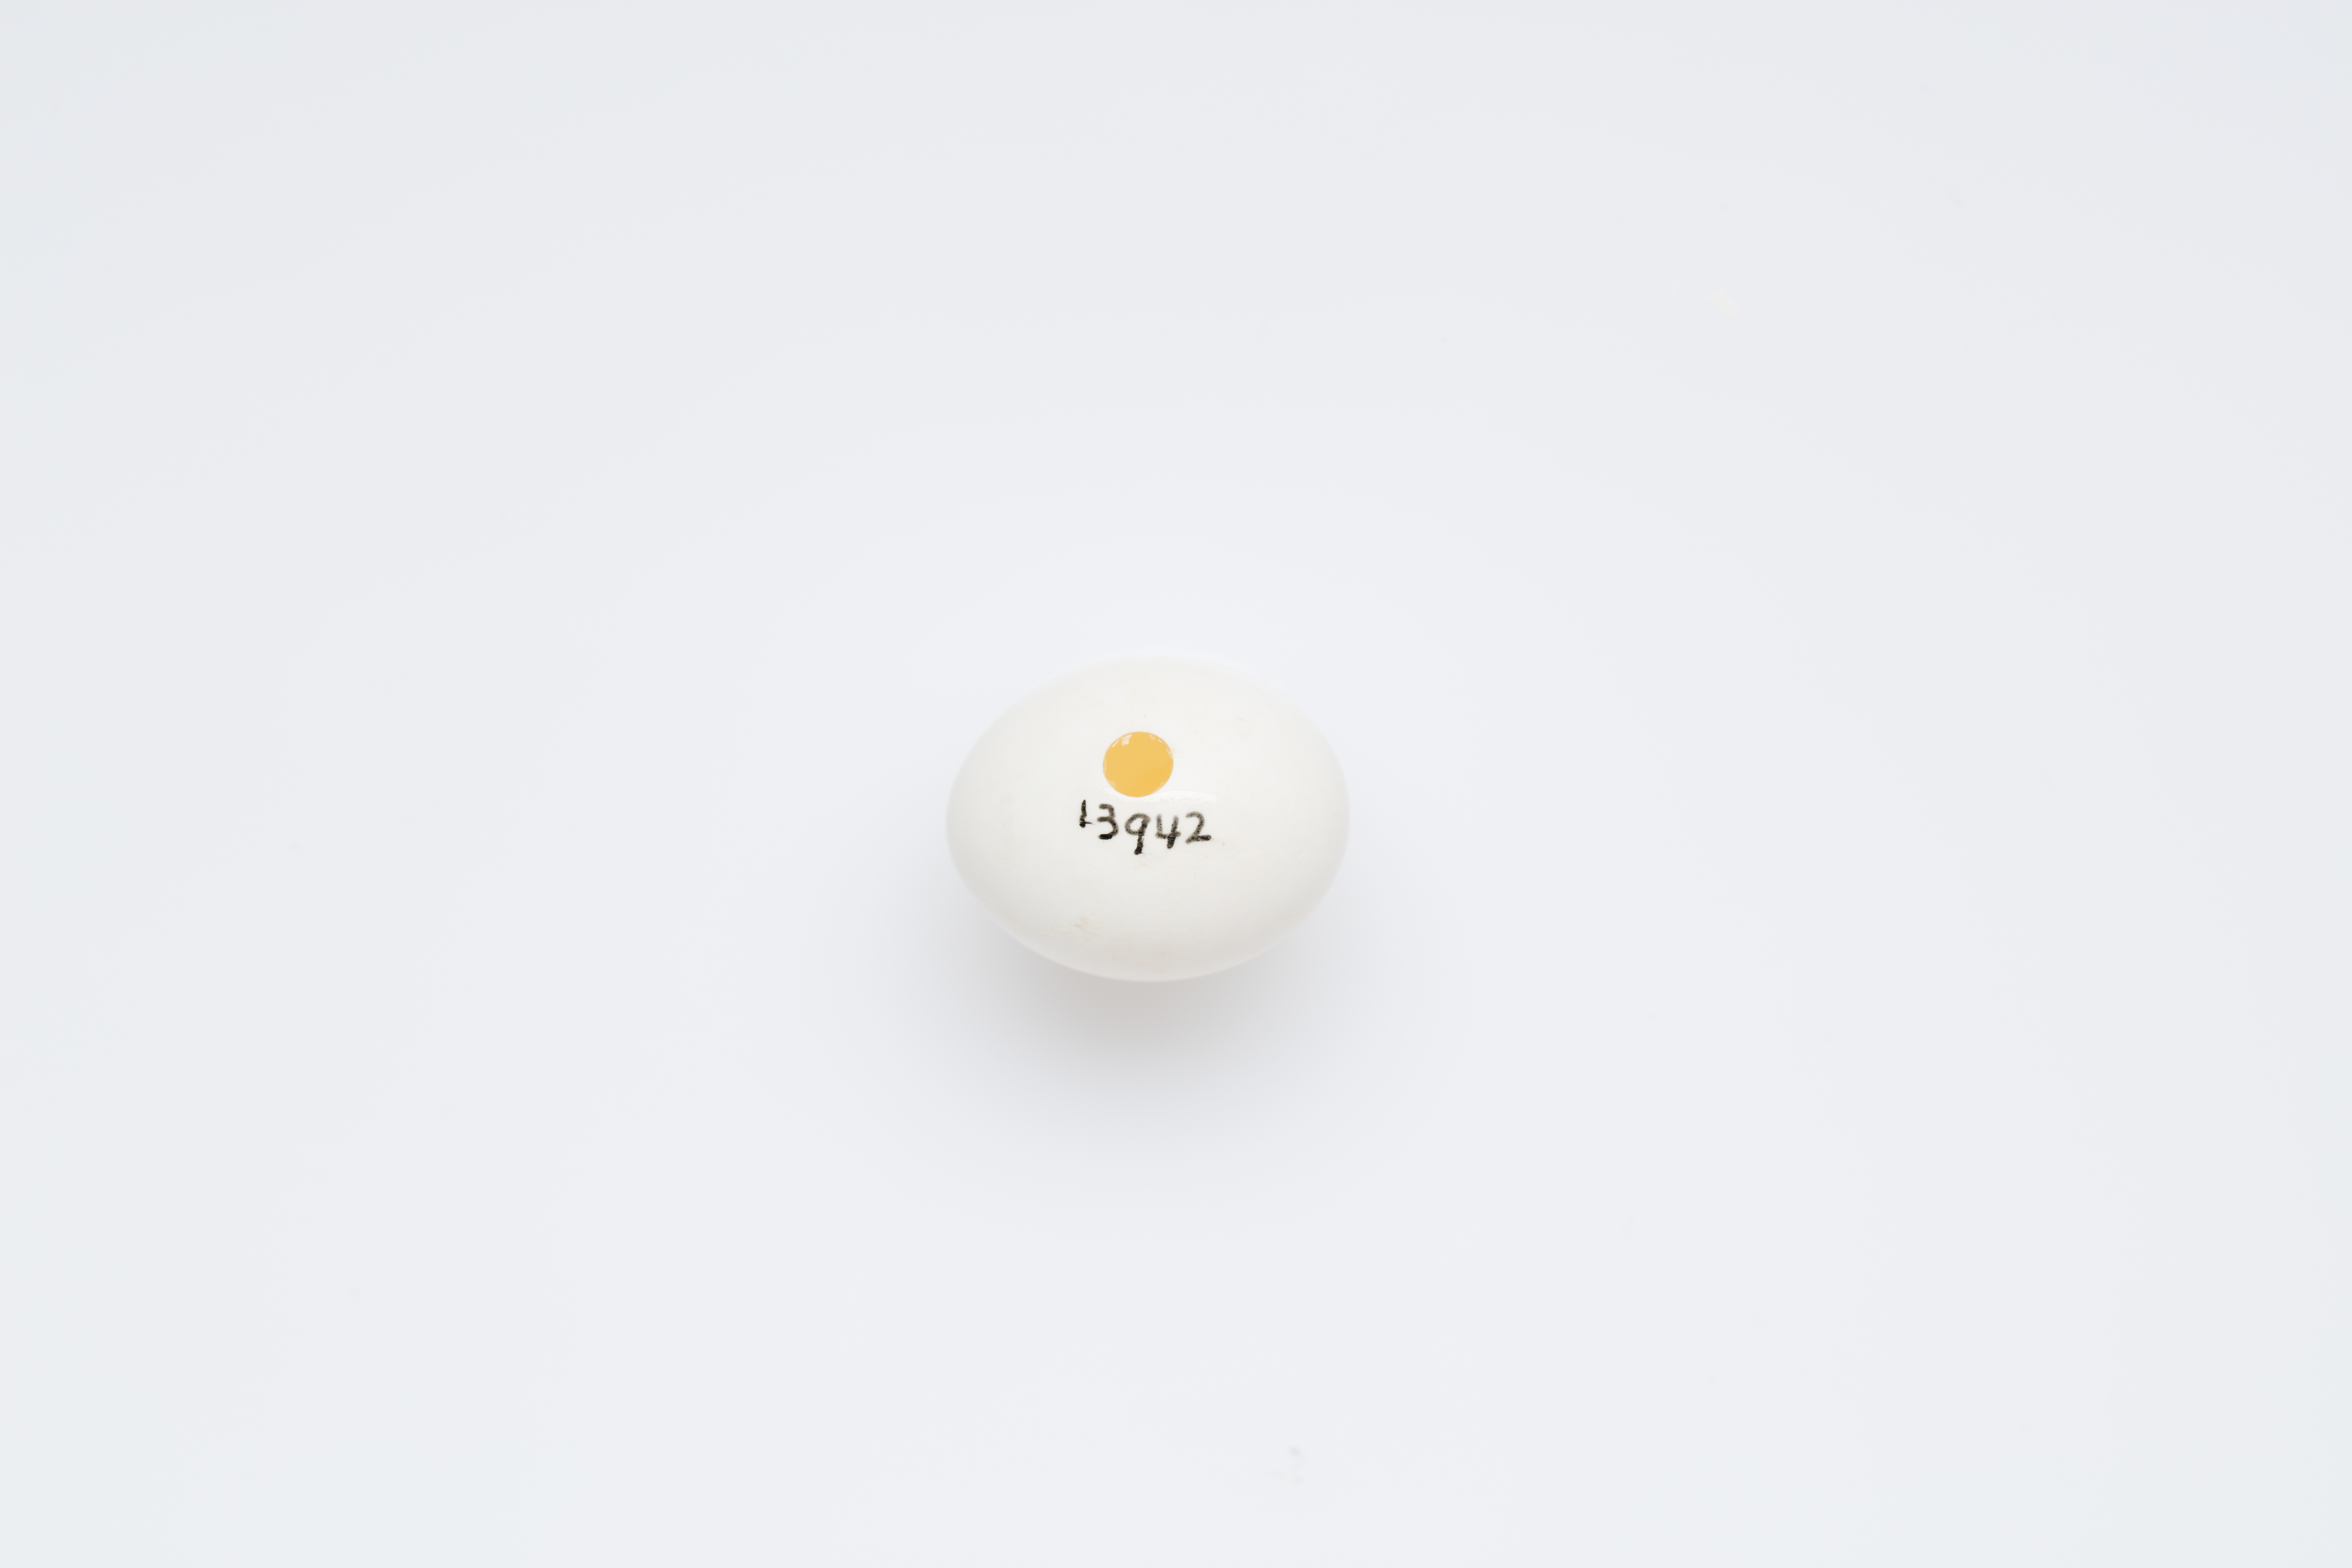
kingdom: Animalia
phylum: Chordata
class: Aves
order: Psittaciformes
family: Psittacidae
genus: Cyanoramphus
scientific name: Cyanoramphus novaezelandiae
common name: Red-fronted parakeet
